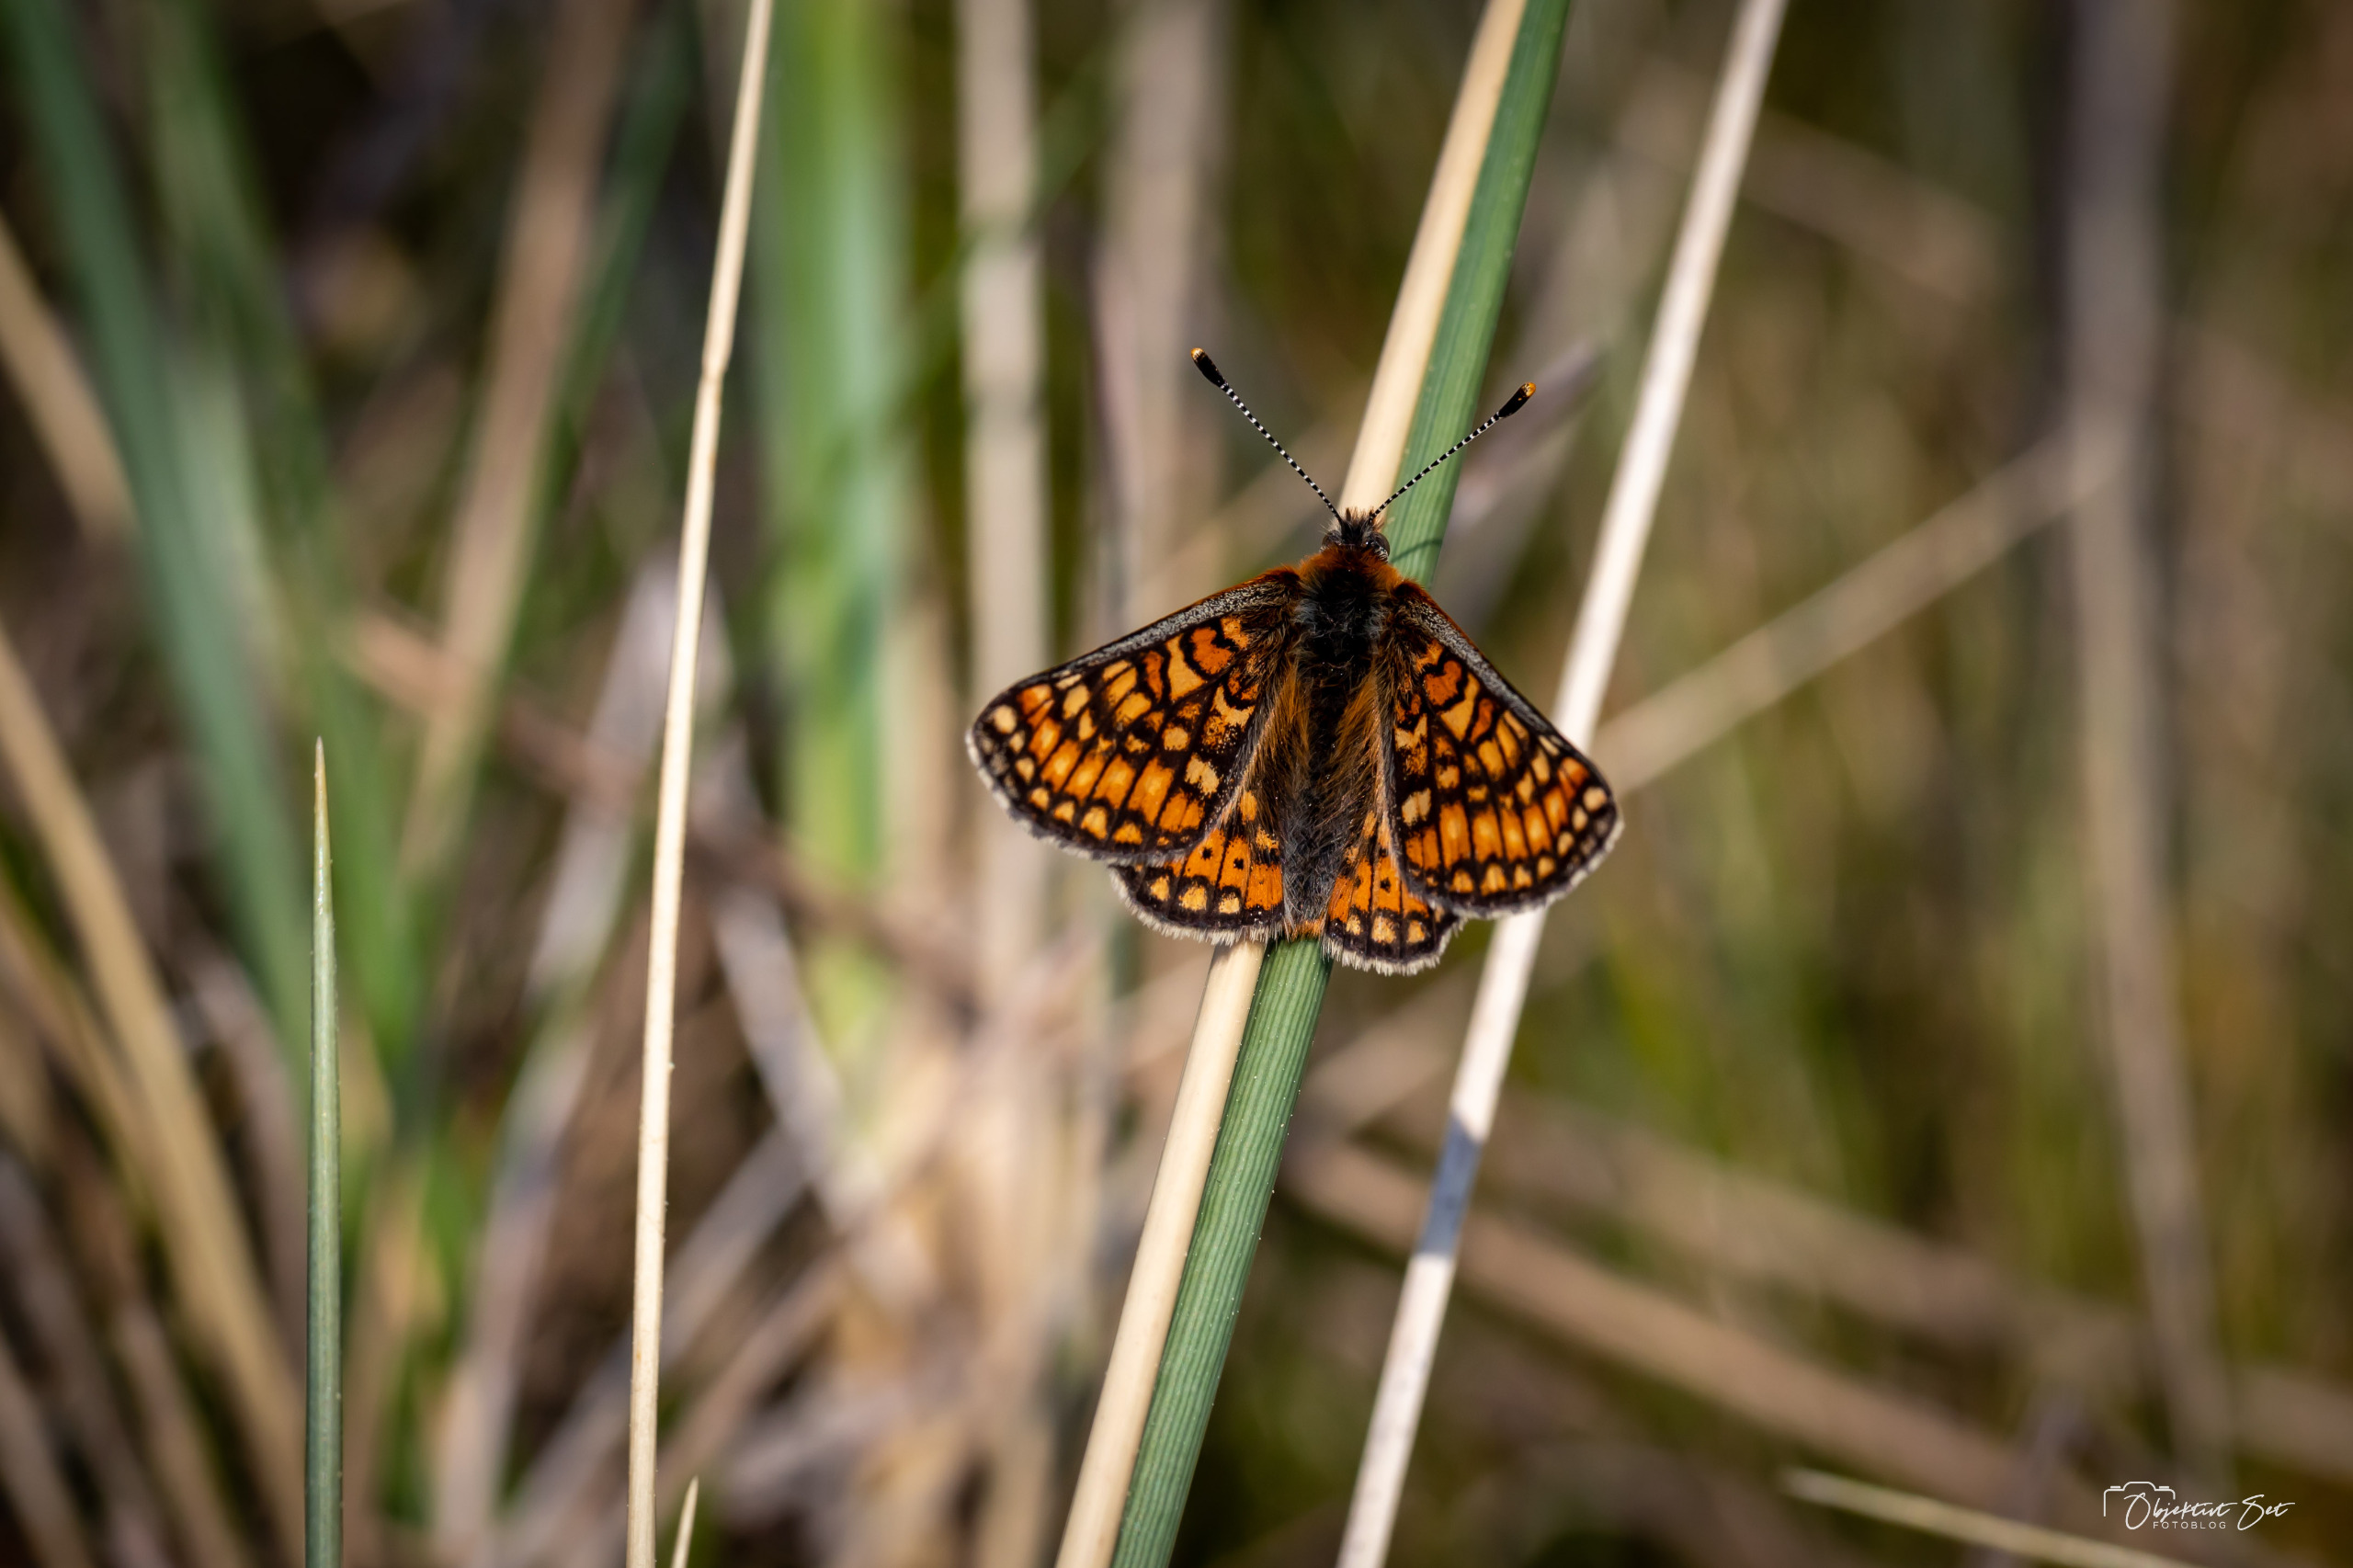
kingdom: Animalia
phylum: Arthropoda
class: Insecta
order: Lepidoptera
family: Nymphalidae
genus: Euphydryas
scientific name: Euphydryas aurinia
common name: Hedepletvinge
